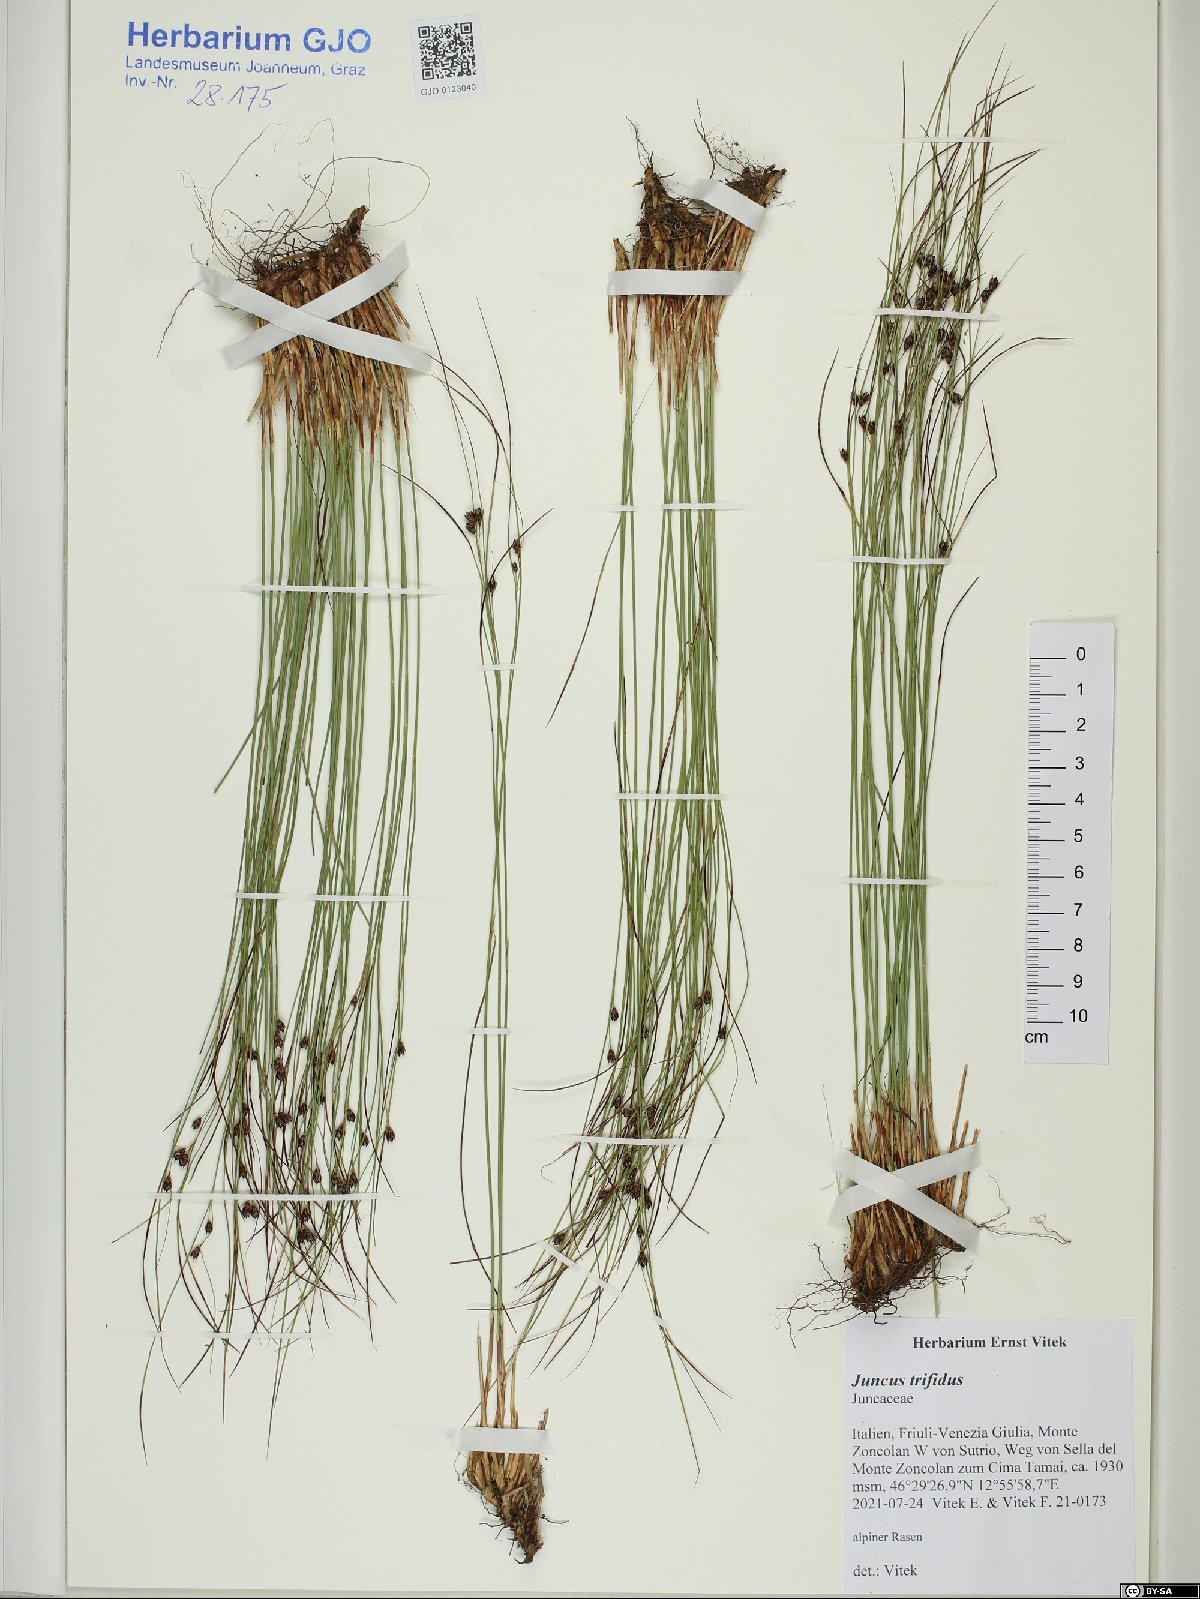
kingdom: Plantae
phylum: Tracheophyta
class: Liliopsida
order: Poales
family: Juncaceae
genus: Oreojuncus
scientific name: Oreojuncus trifidus
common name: Highland rush
